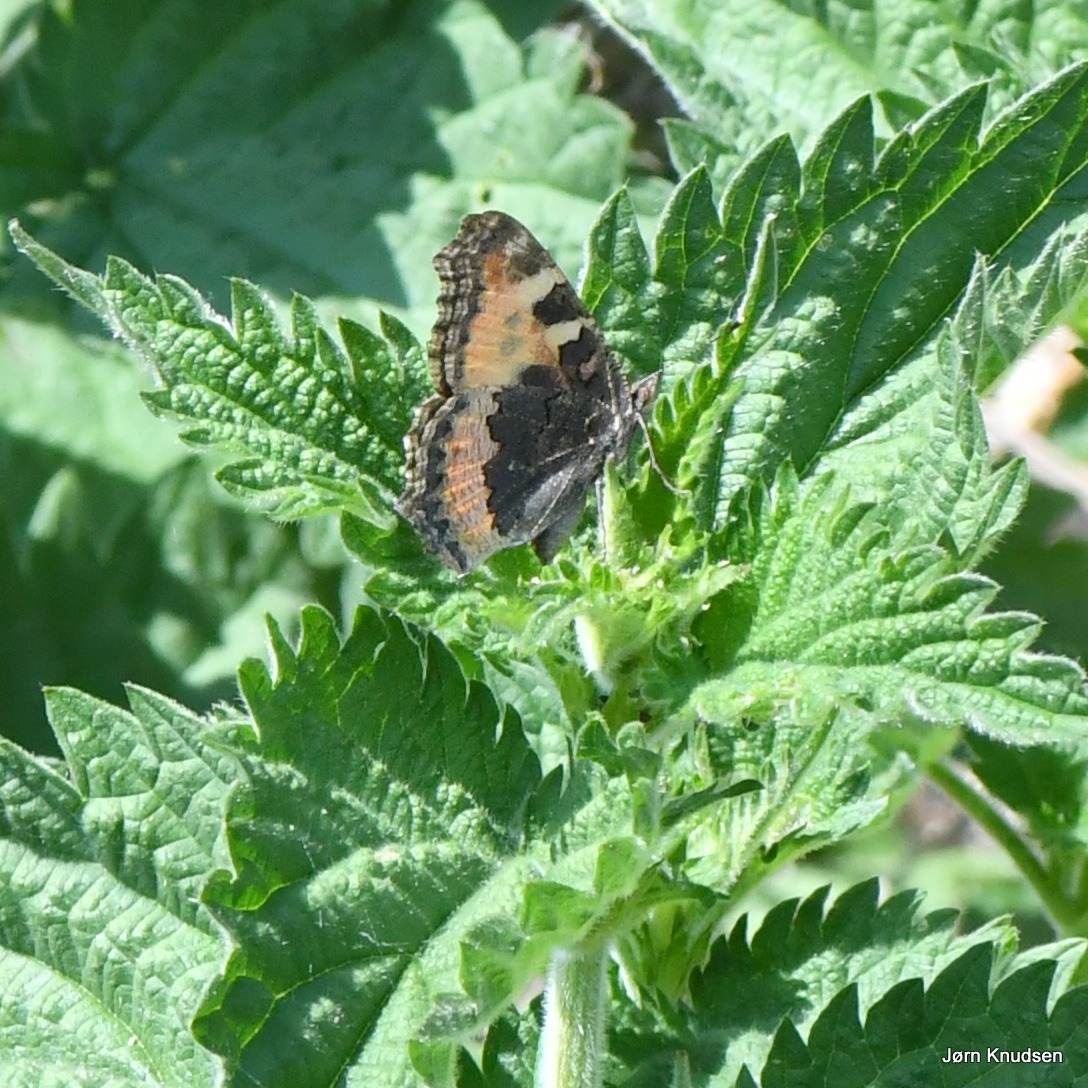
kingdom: Animalia
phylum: Arthropoda
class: Insecta
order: Lepidoptera
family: Nymphalidae
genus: Aglais
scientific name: Aglais urticae
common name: Nældens takvinge
